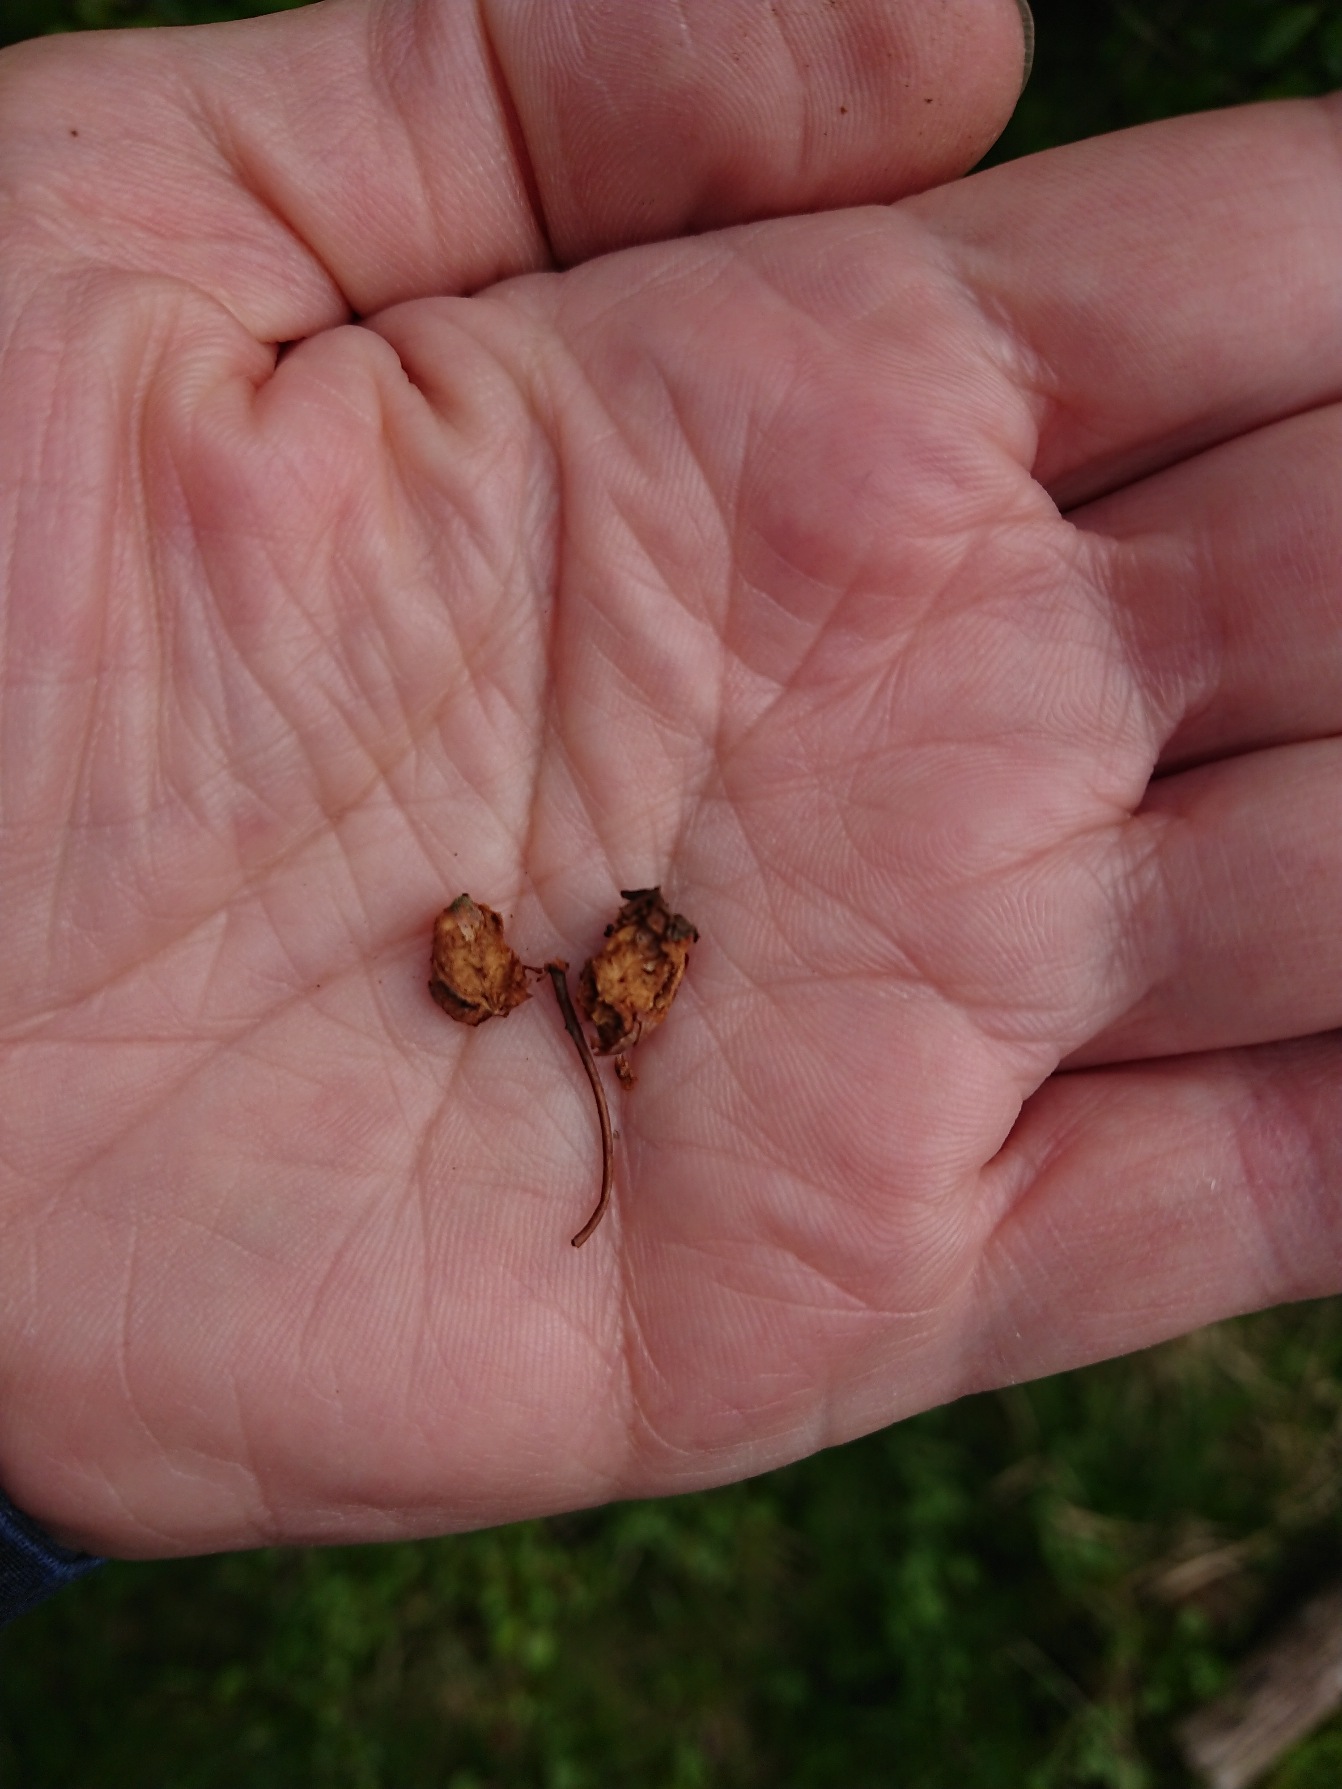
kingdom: Plantae
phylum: Tracheophyta
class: Magnoliopsida
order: Rosales
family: Rosaceae
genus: Crataegus
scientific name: Crataegus laevigata
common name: Almindelig hvidtjørn
